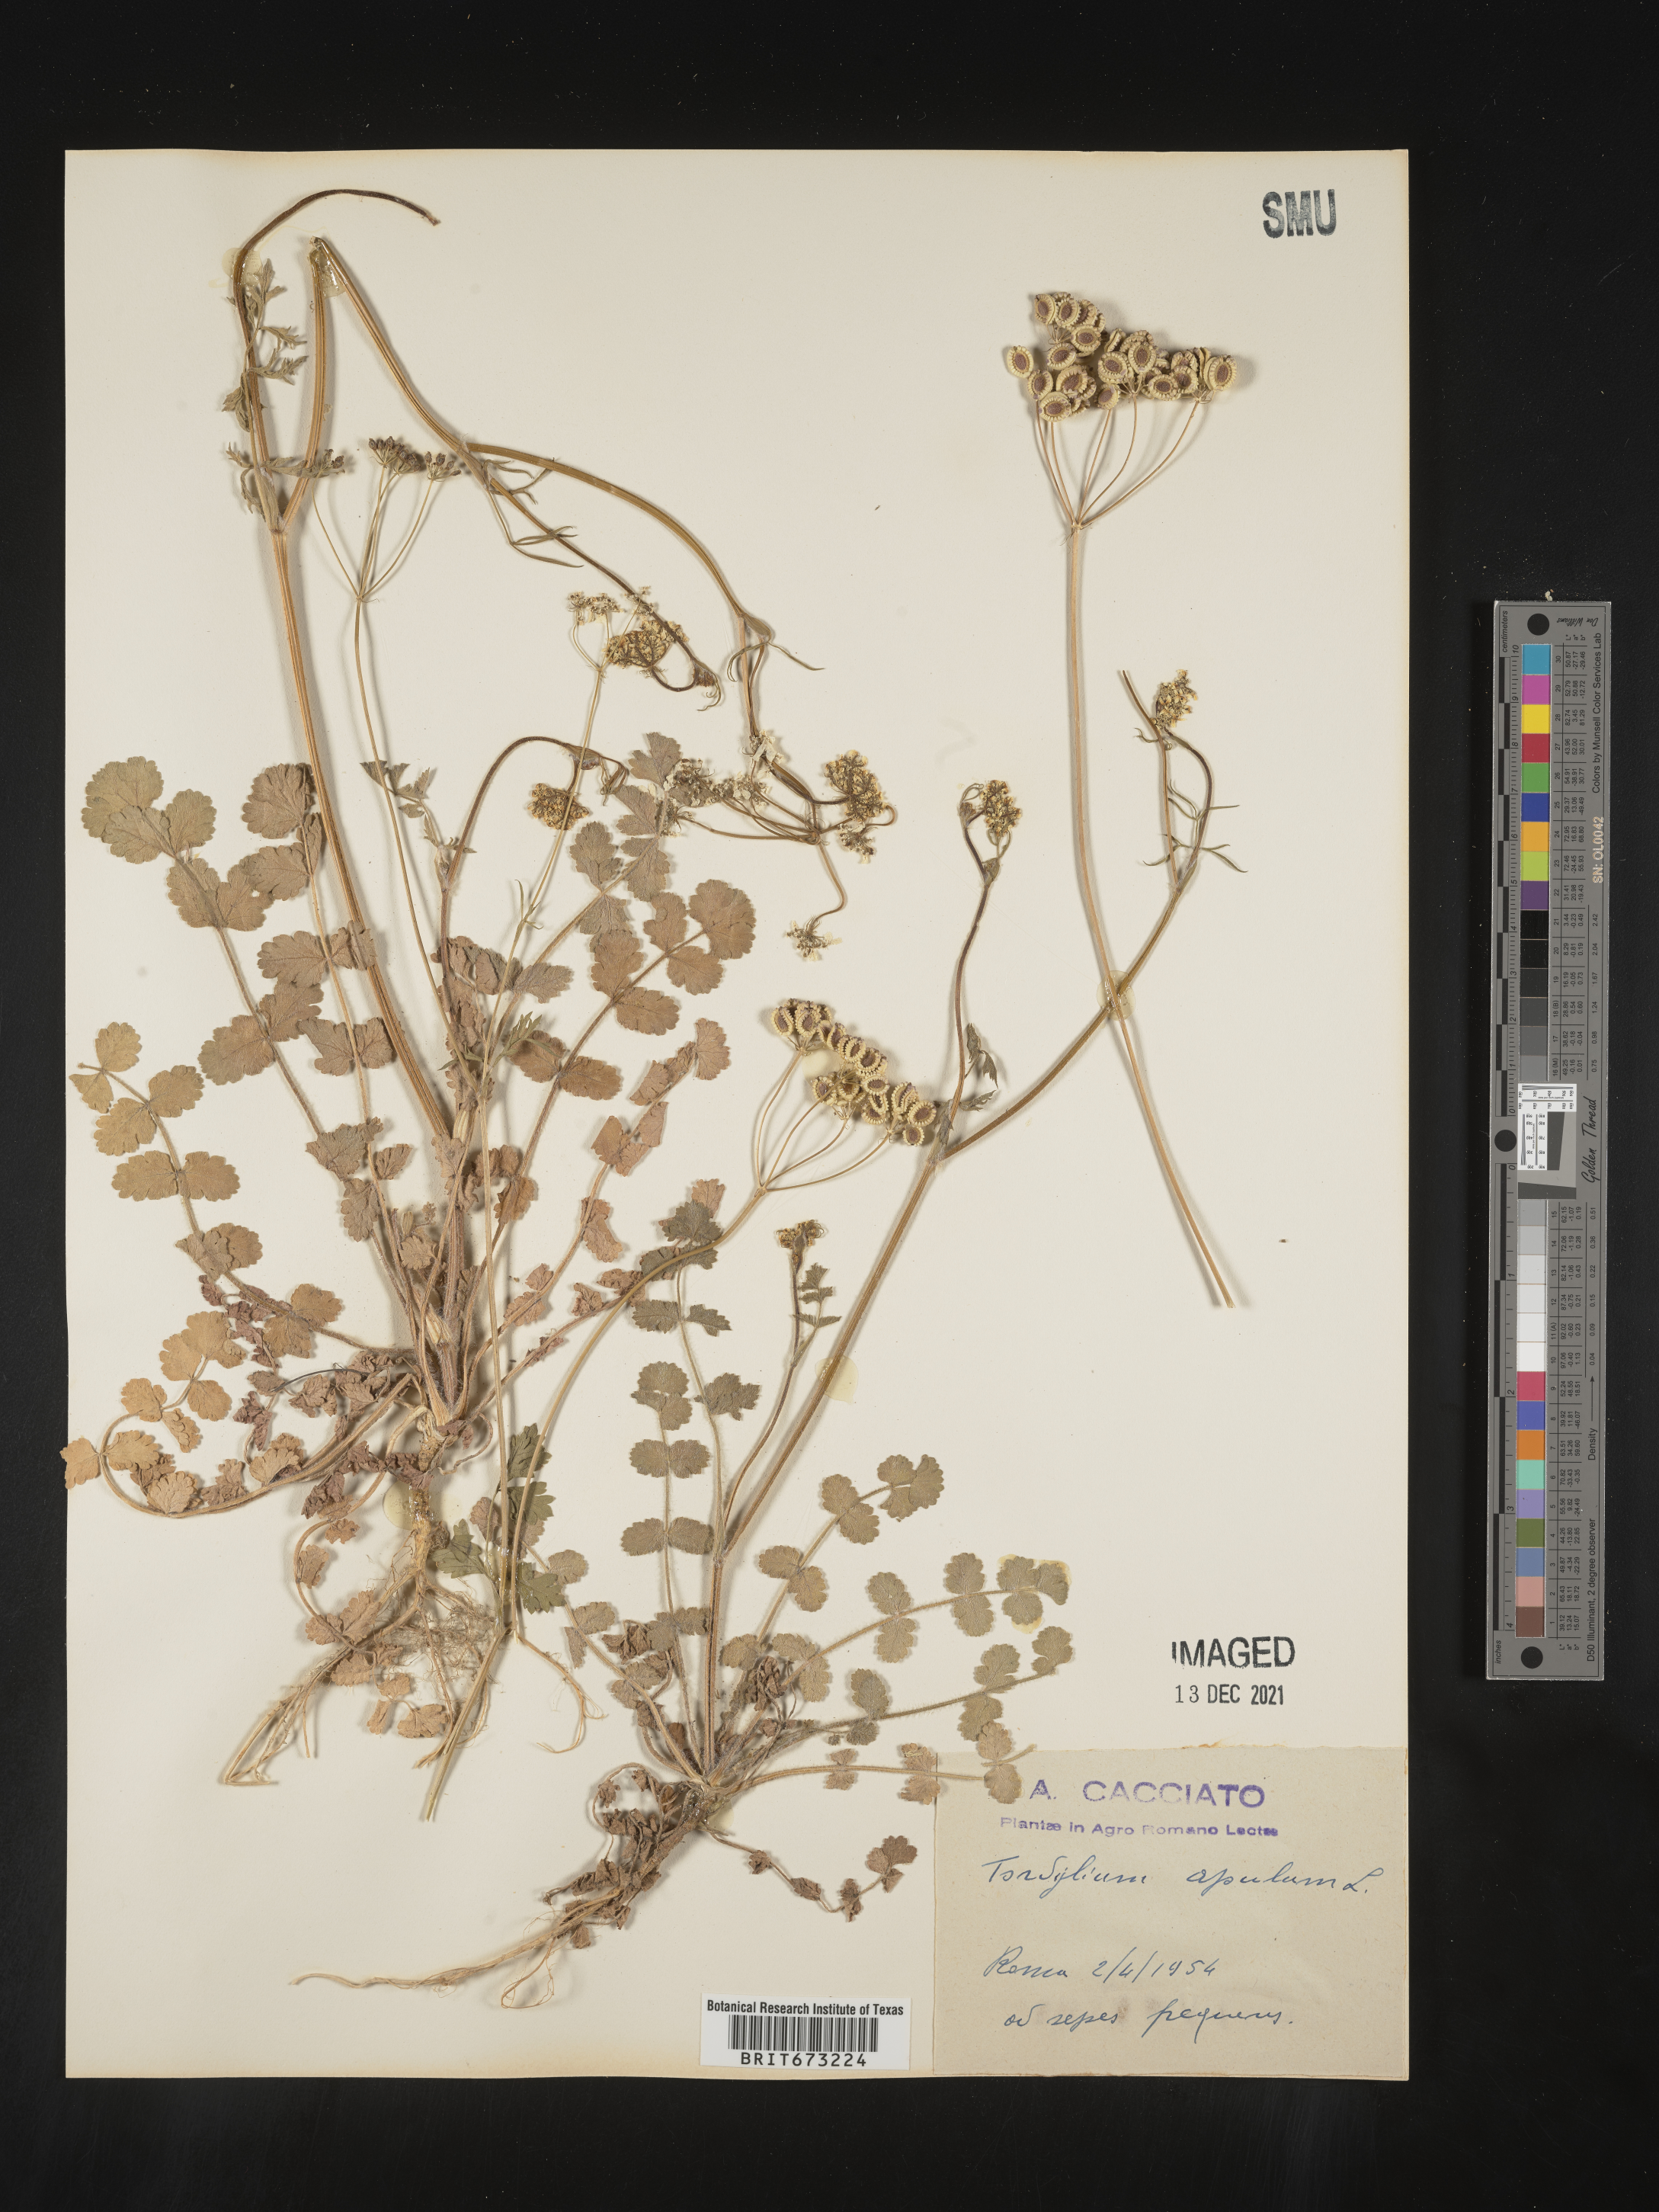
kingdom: Plantae
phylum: Tracheophyta
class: Magnoliopsida
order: Apiales
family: Apiaceae
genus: Tordylium
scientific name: Tordylium
